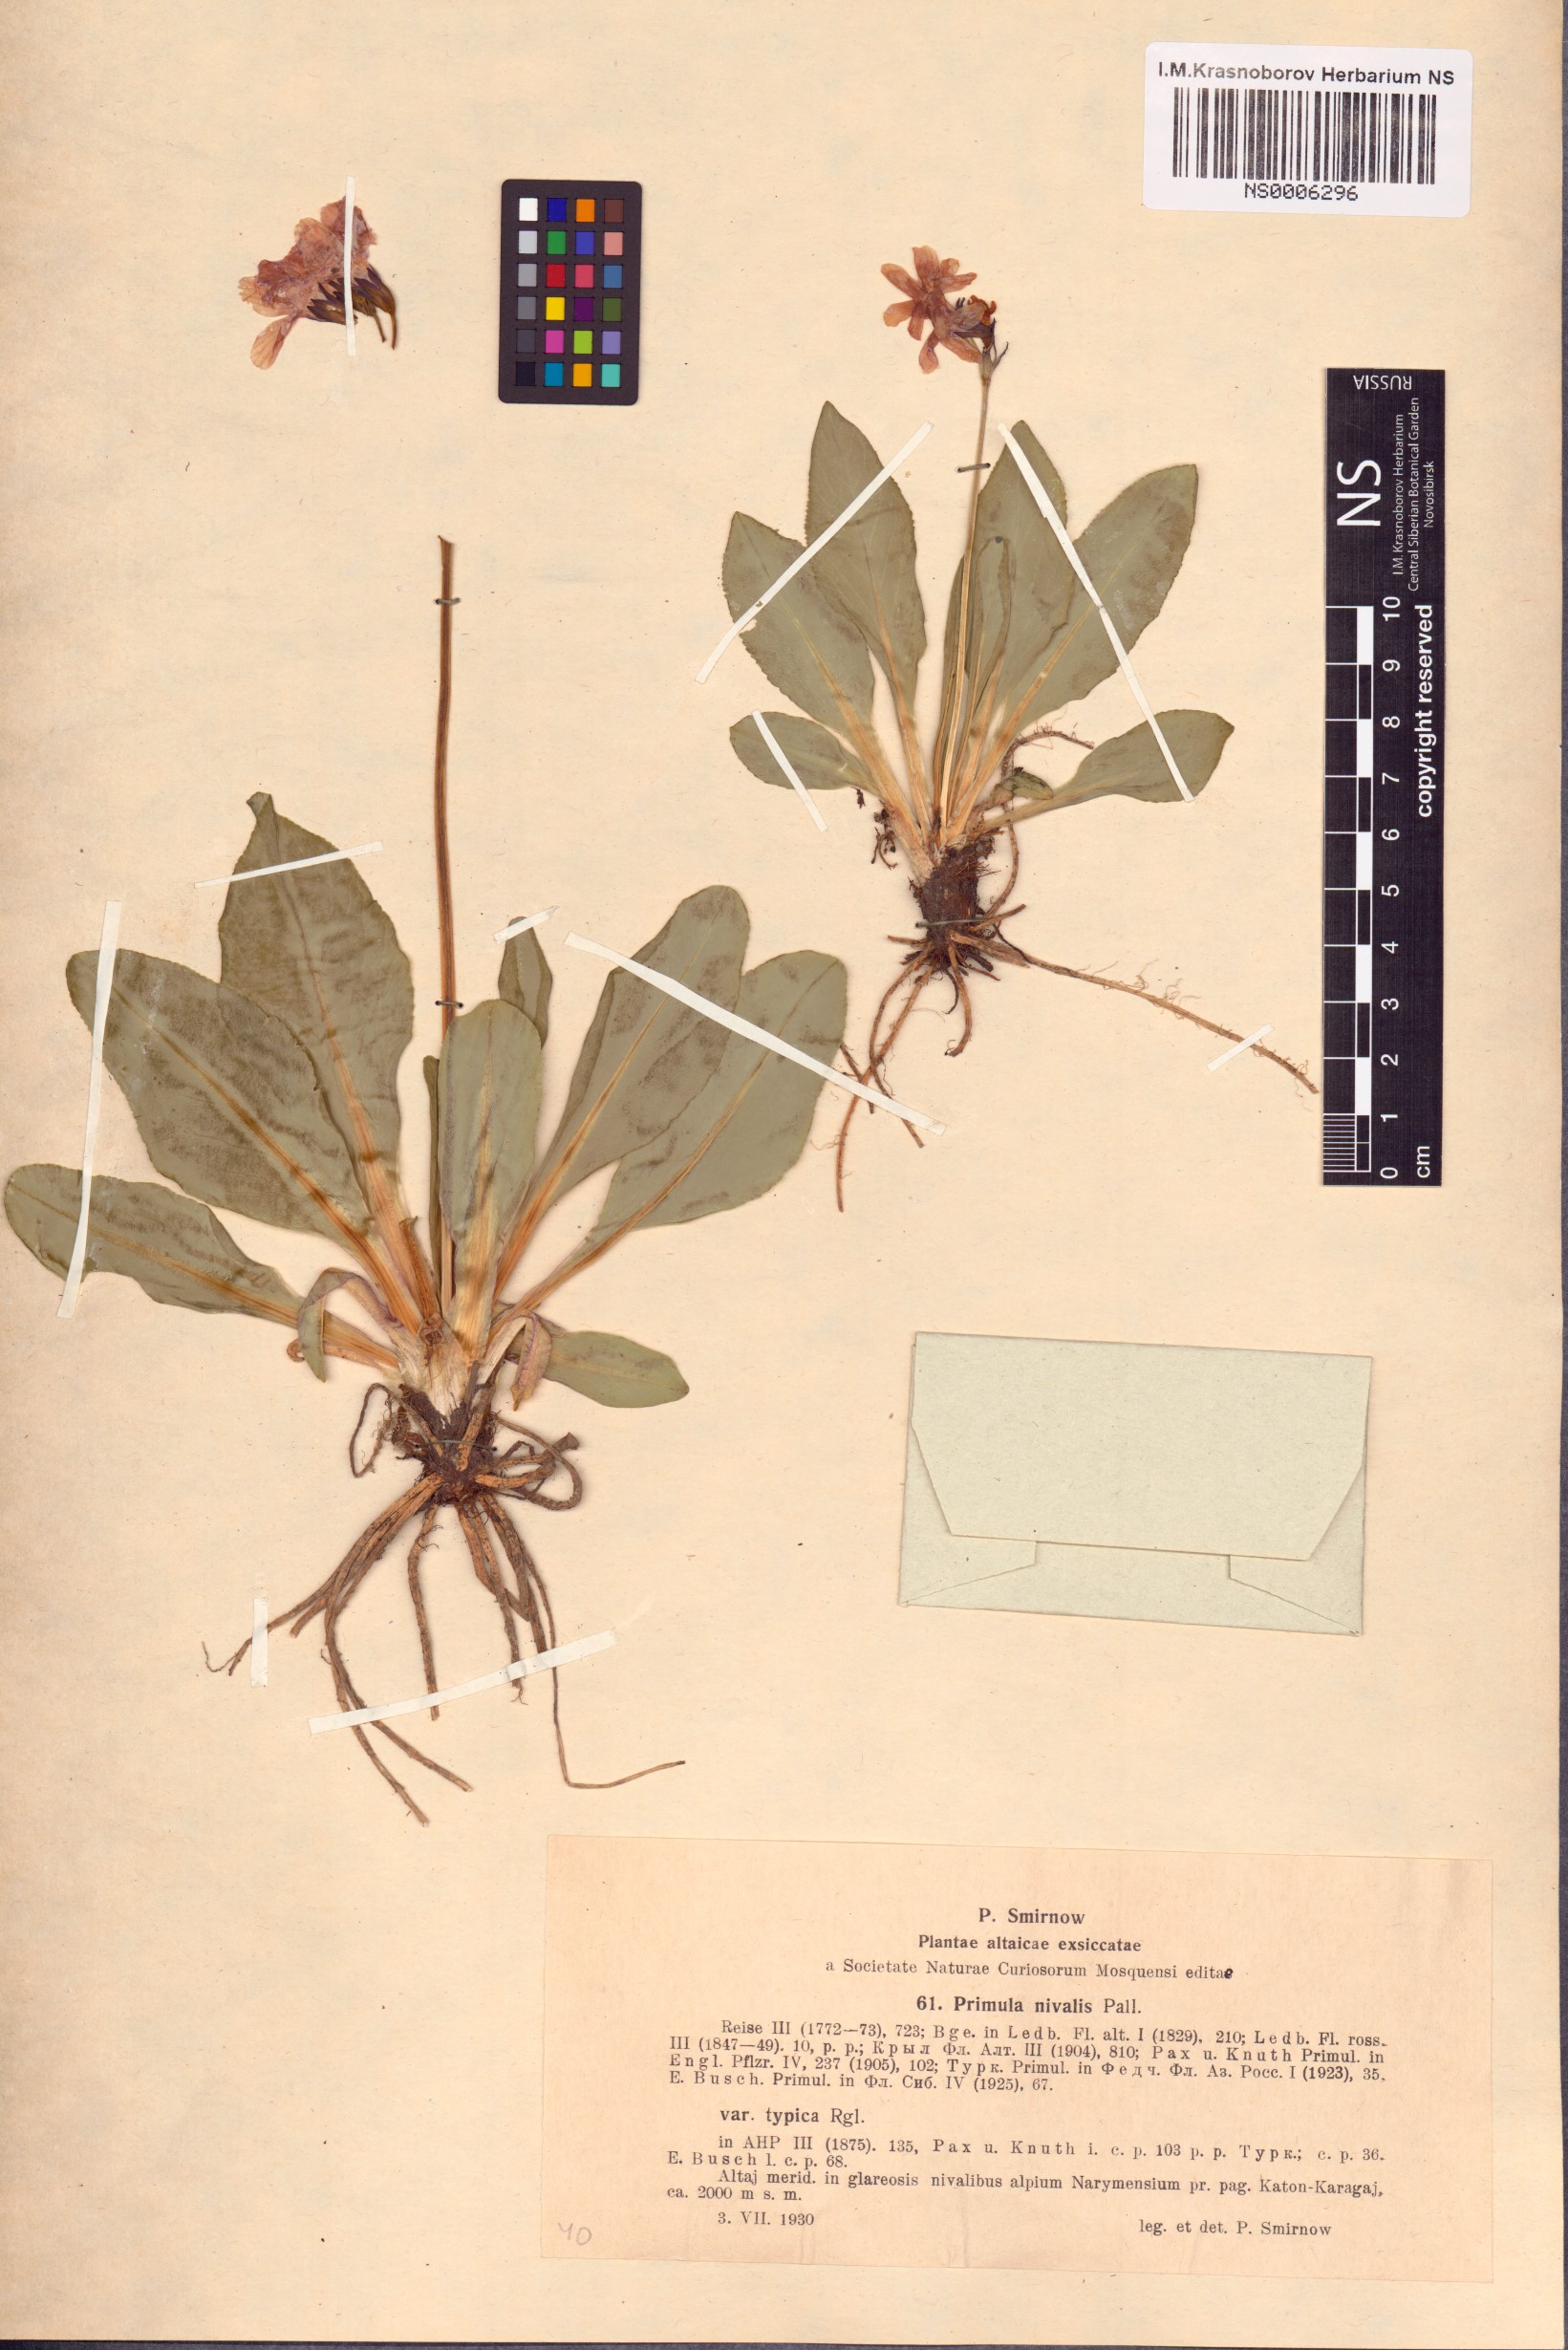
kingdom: Plantae
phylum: Tracheophyta
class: Magnoliopsida
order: Ericales
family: Primulaceae
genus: Primula
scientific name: Primula nivalis
